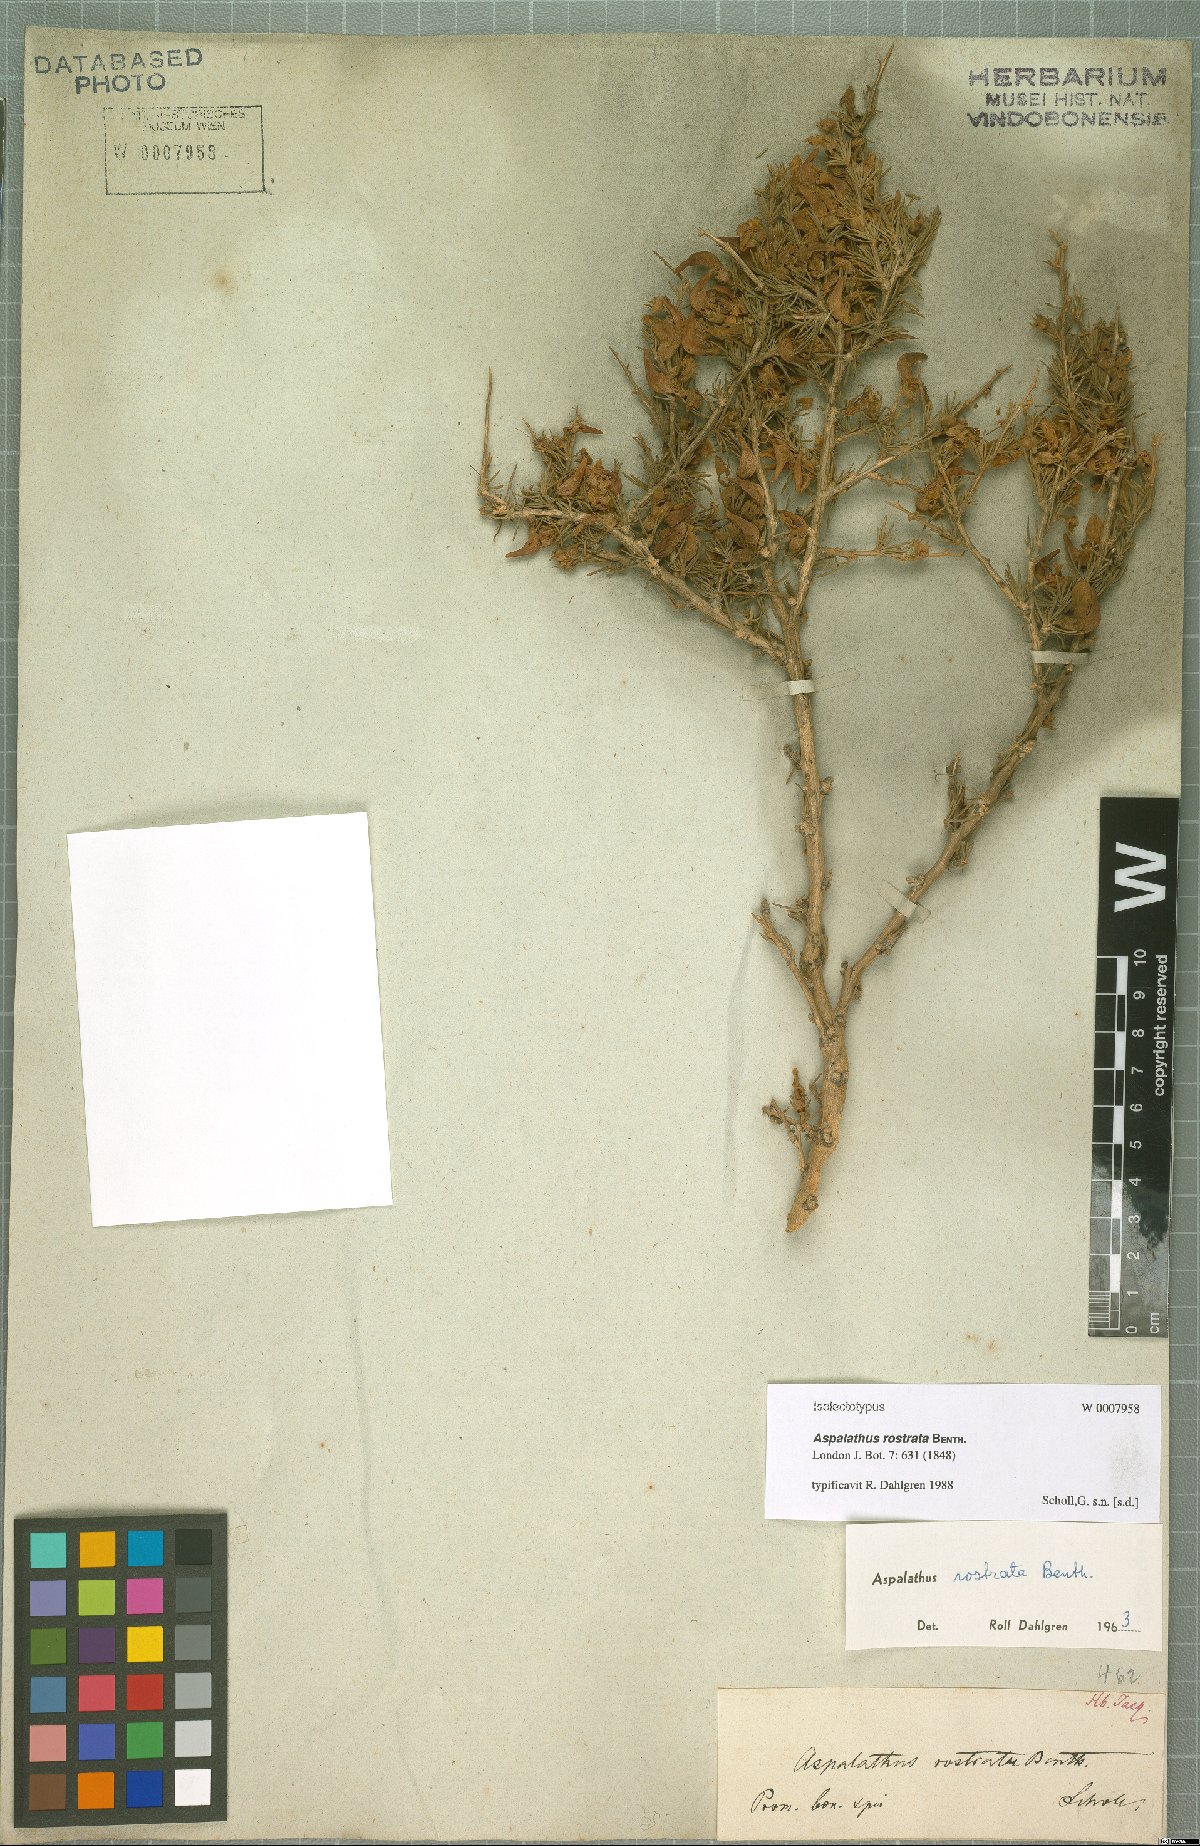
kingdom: Plantae
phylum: Tracheophyta
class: Magnoliopsida
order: Fabales
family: Fabaceae
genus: Aspalathus
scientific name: Aspalathus rostrata
